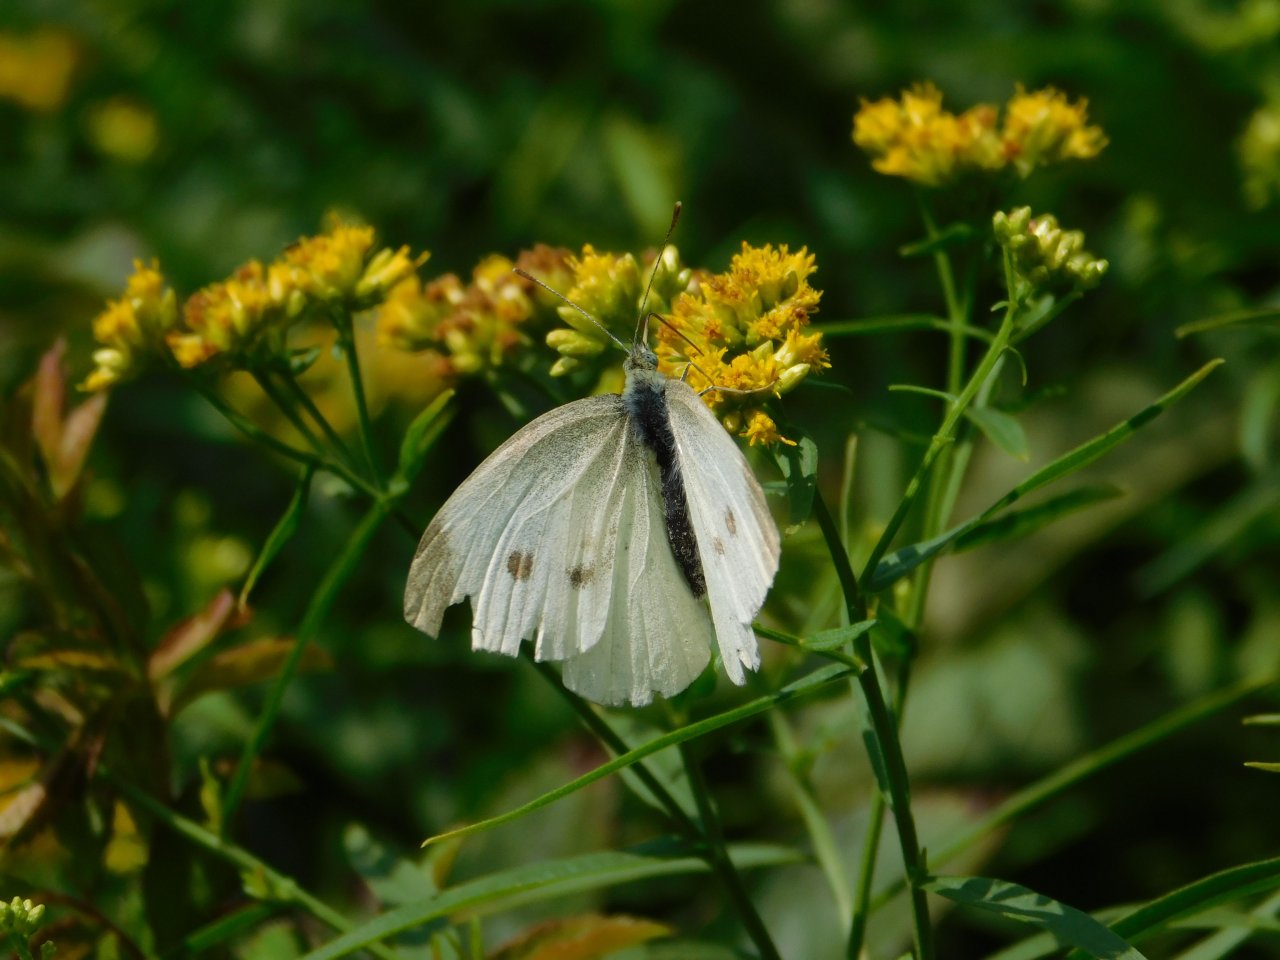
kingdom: Animalia
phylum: Arthropoda
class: Insecta
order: Lepidoptera
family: Pieridae
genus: Pieris
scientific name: Pieris rapae
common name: Cabbage White
